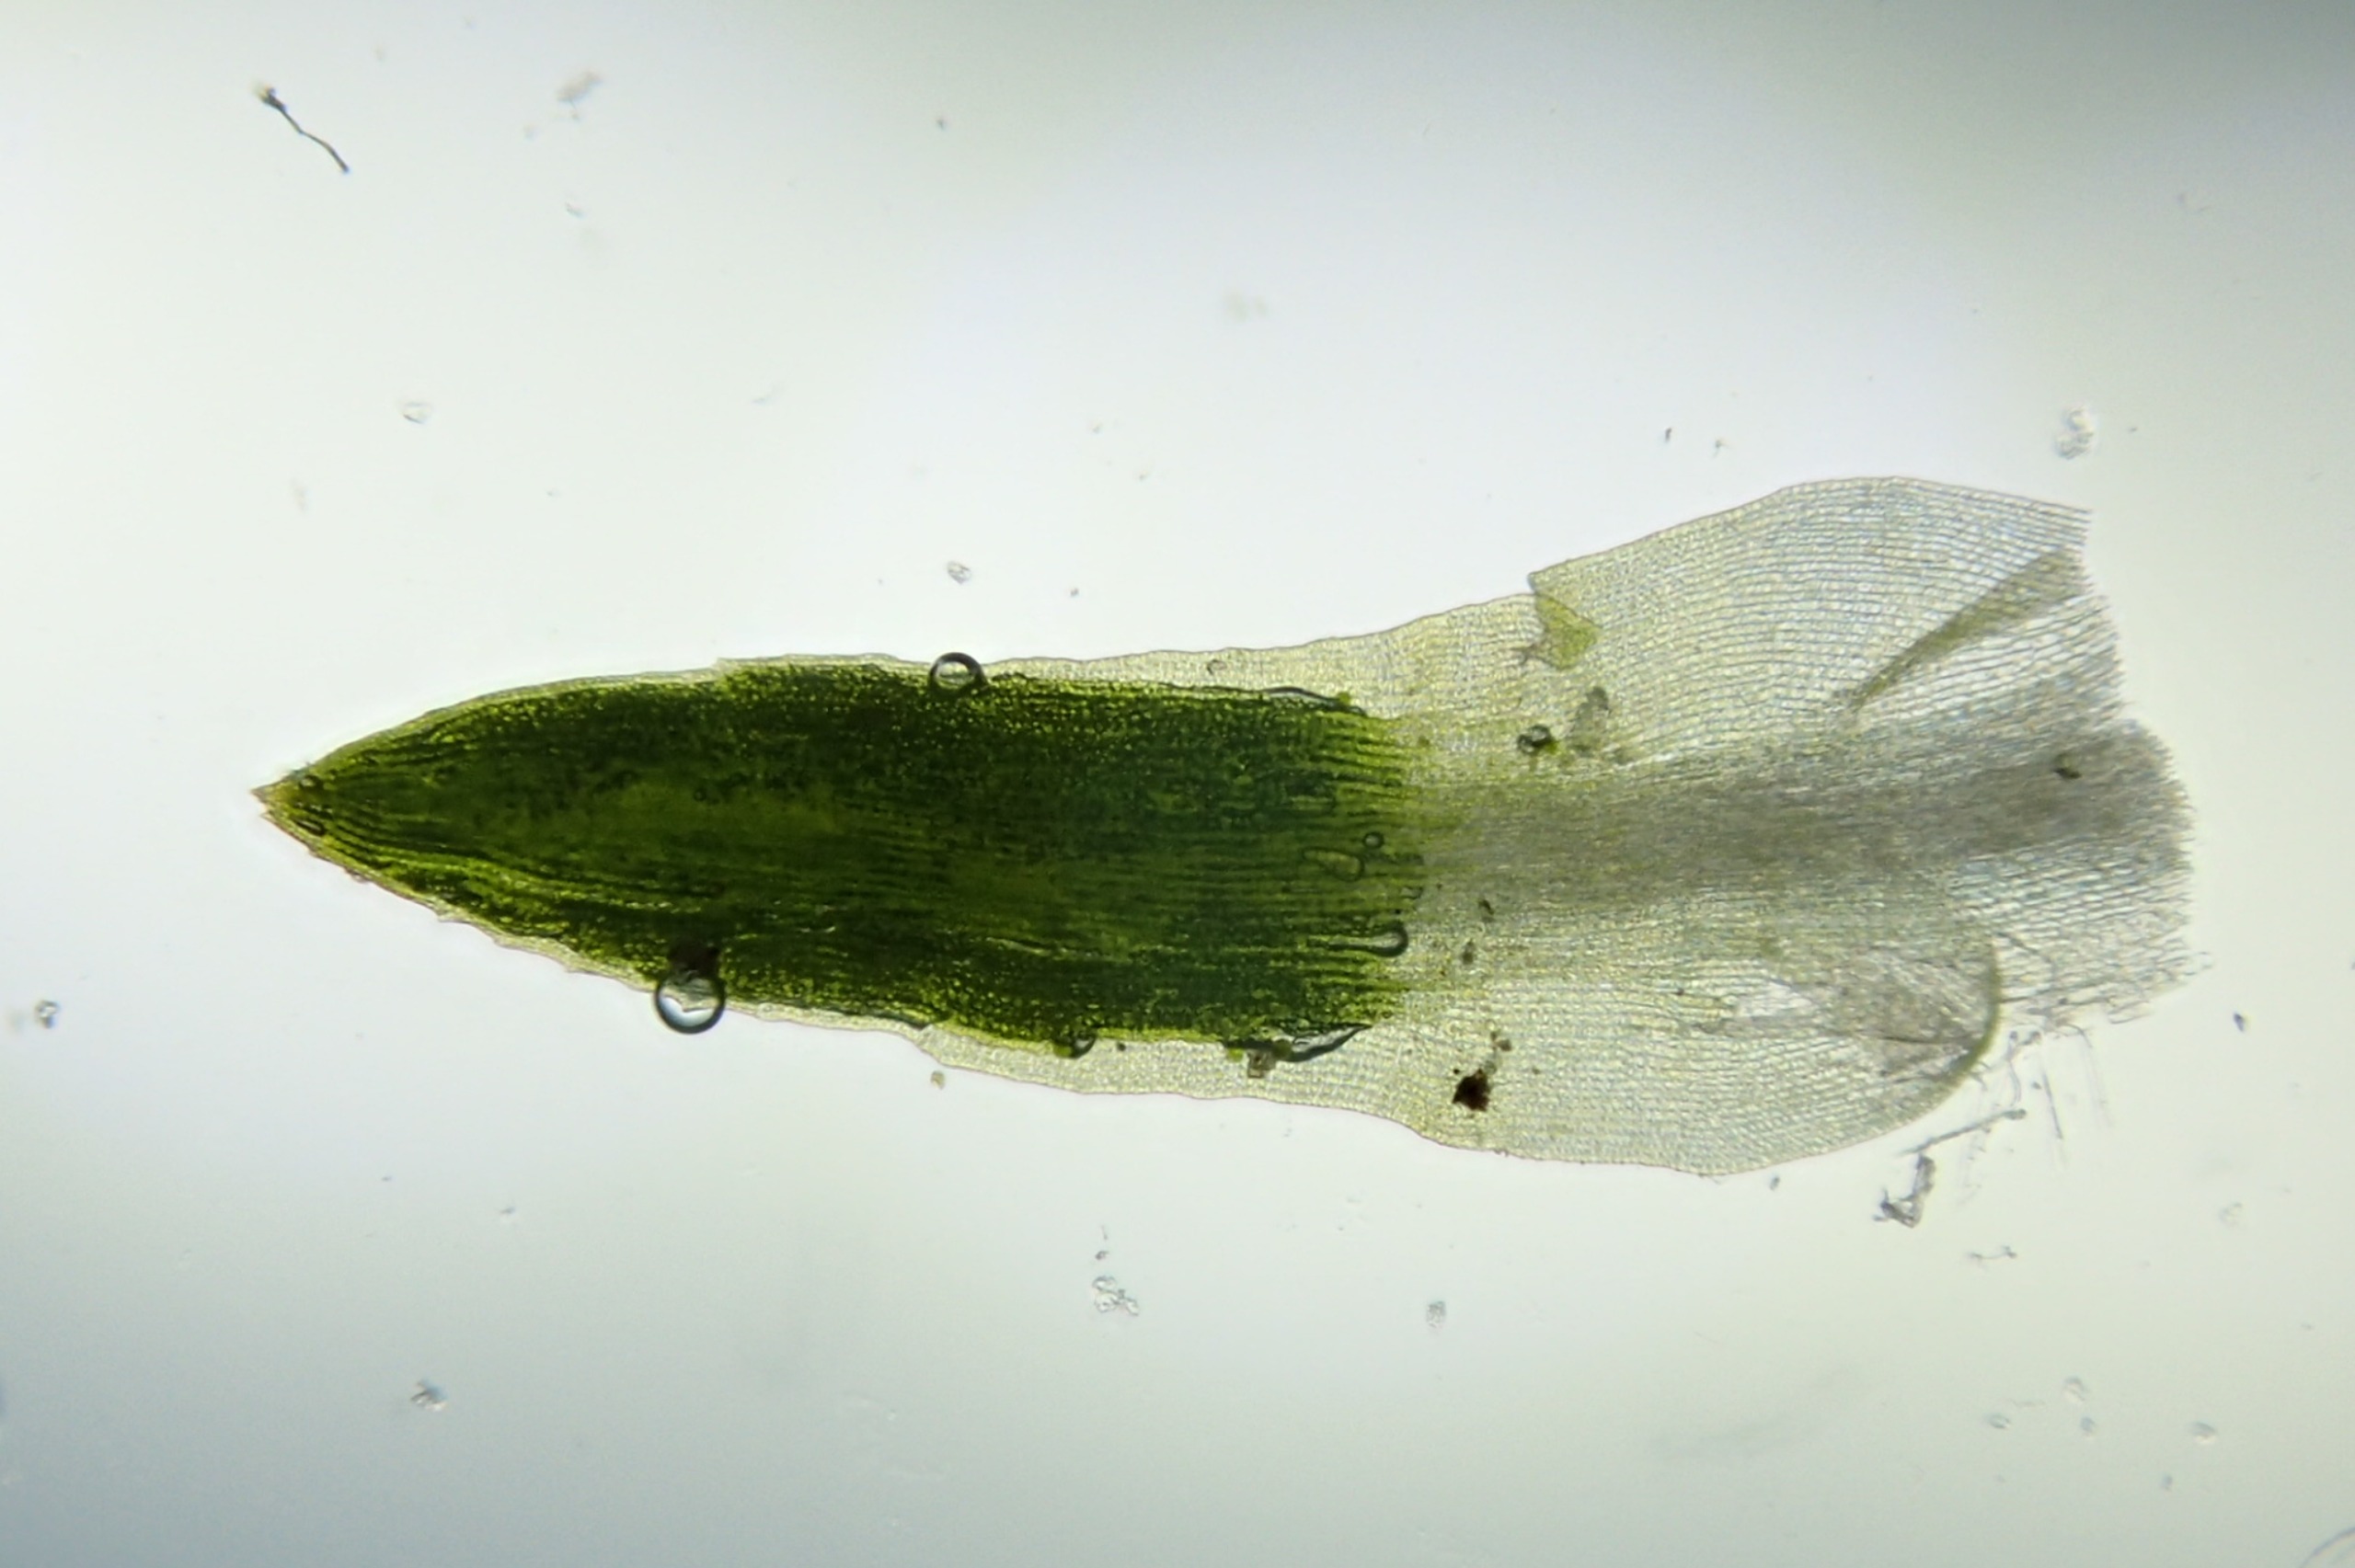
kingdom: Plantae
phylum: Bryophyta
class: Polytrichopsida
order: Polytrichales
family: Polytrichaceae
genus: Pogonatum
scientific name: Pogonatum nanum
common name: Dværg-urnekapsel
